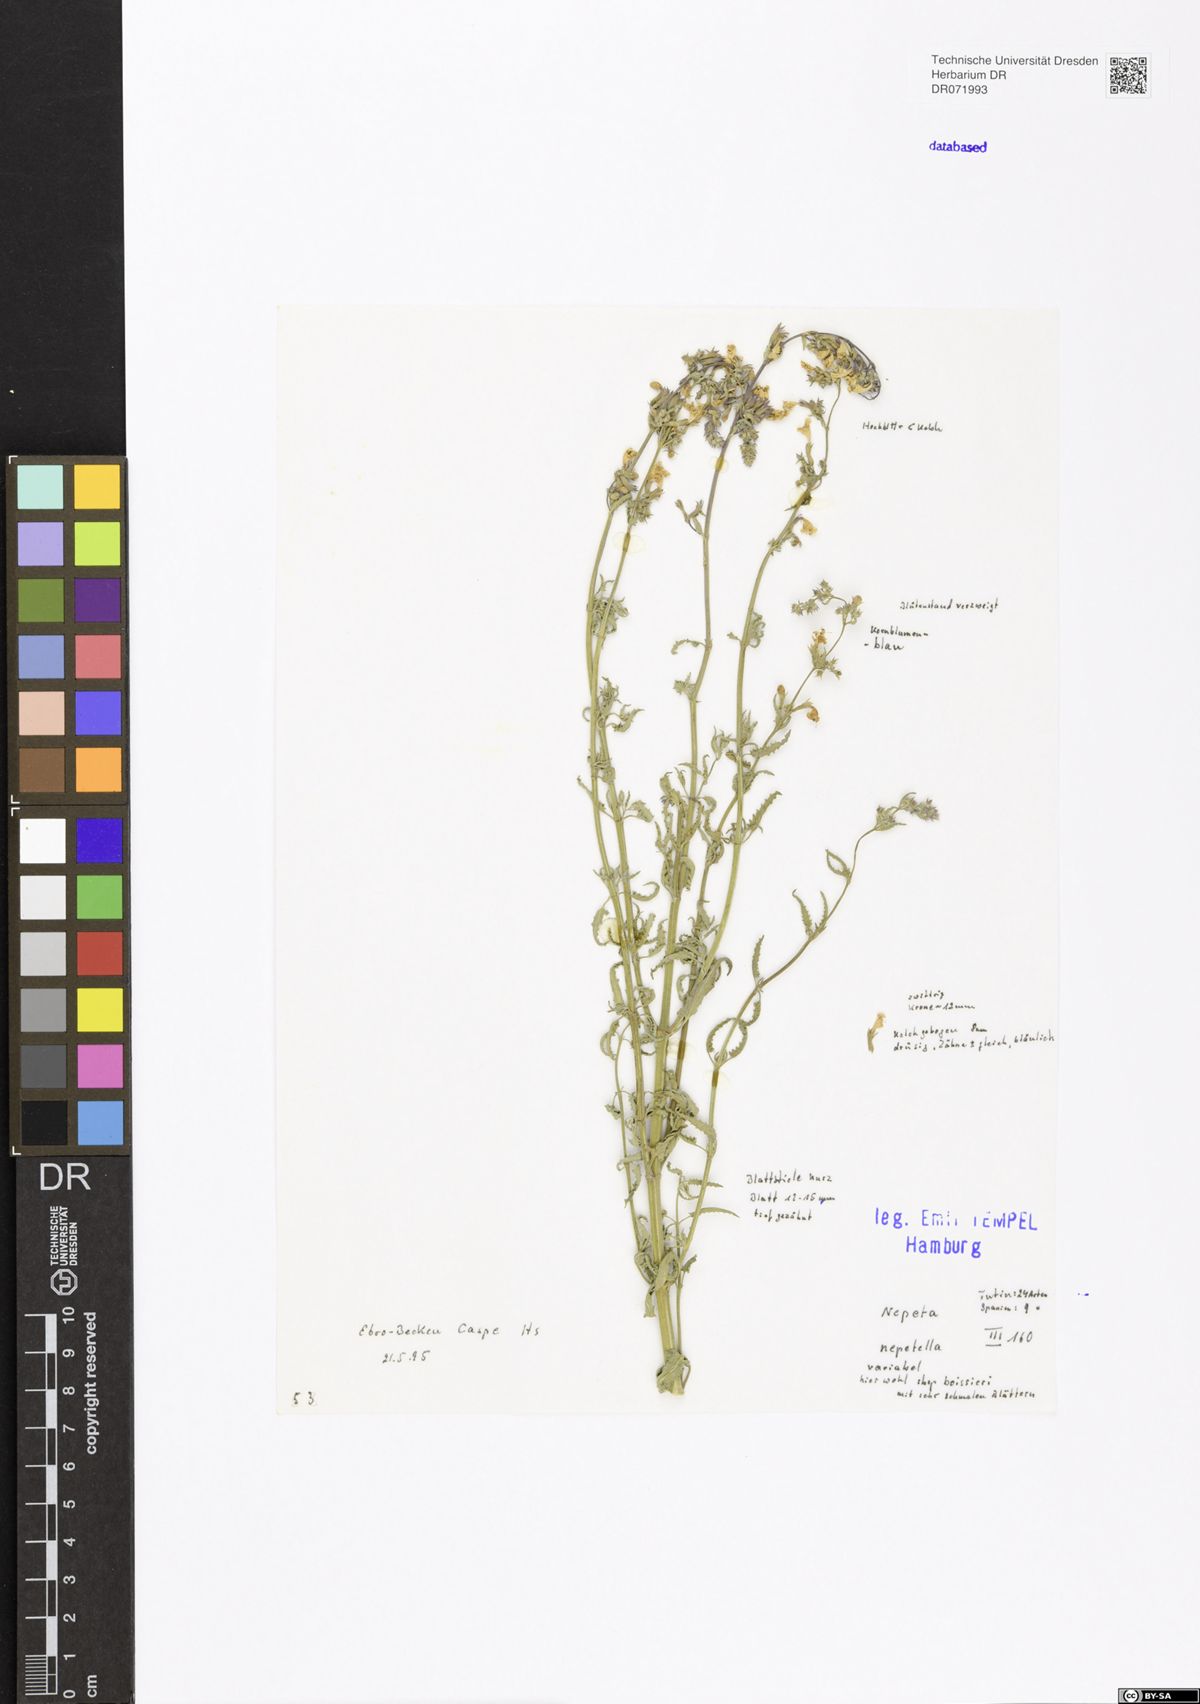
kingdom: Plantae
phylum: Tracheophyta
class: Magnoliopsida
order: Lamiales
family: Lamiaceae
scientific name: Lamiaceae
